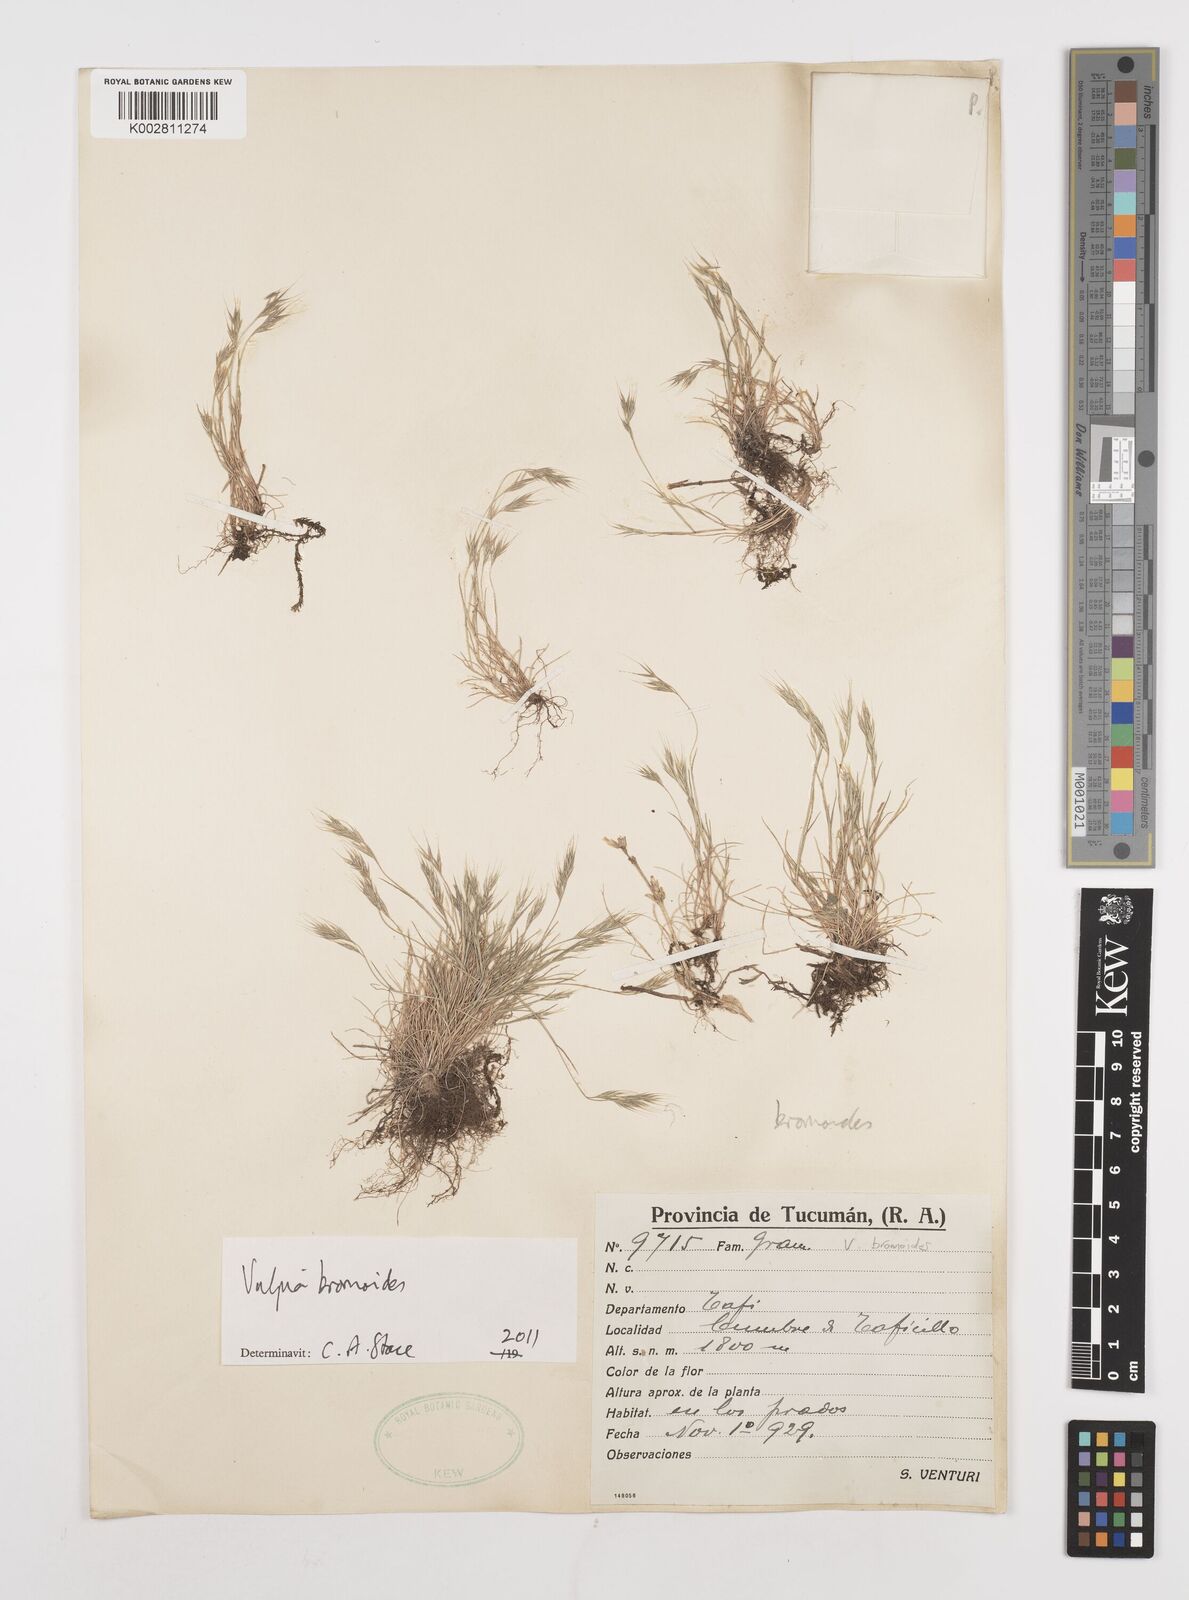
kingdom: Plantae
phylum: Tracheophyta
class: Liliopsida
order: Poales
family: Poaceae
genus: Festuca
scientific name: Festuca bromoides
